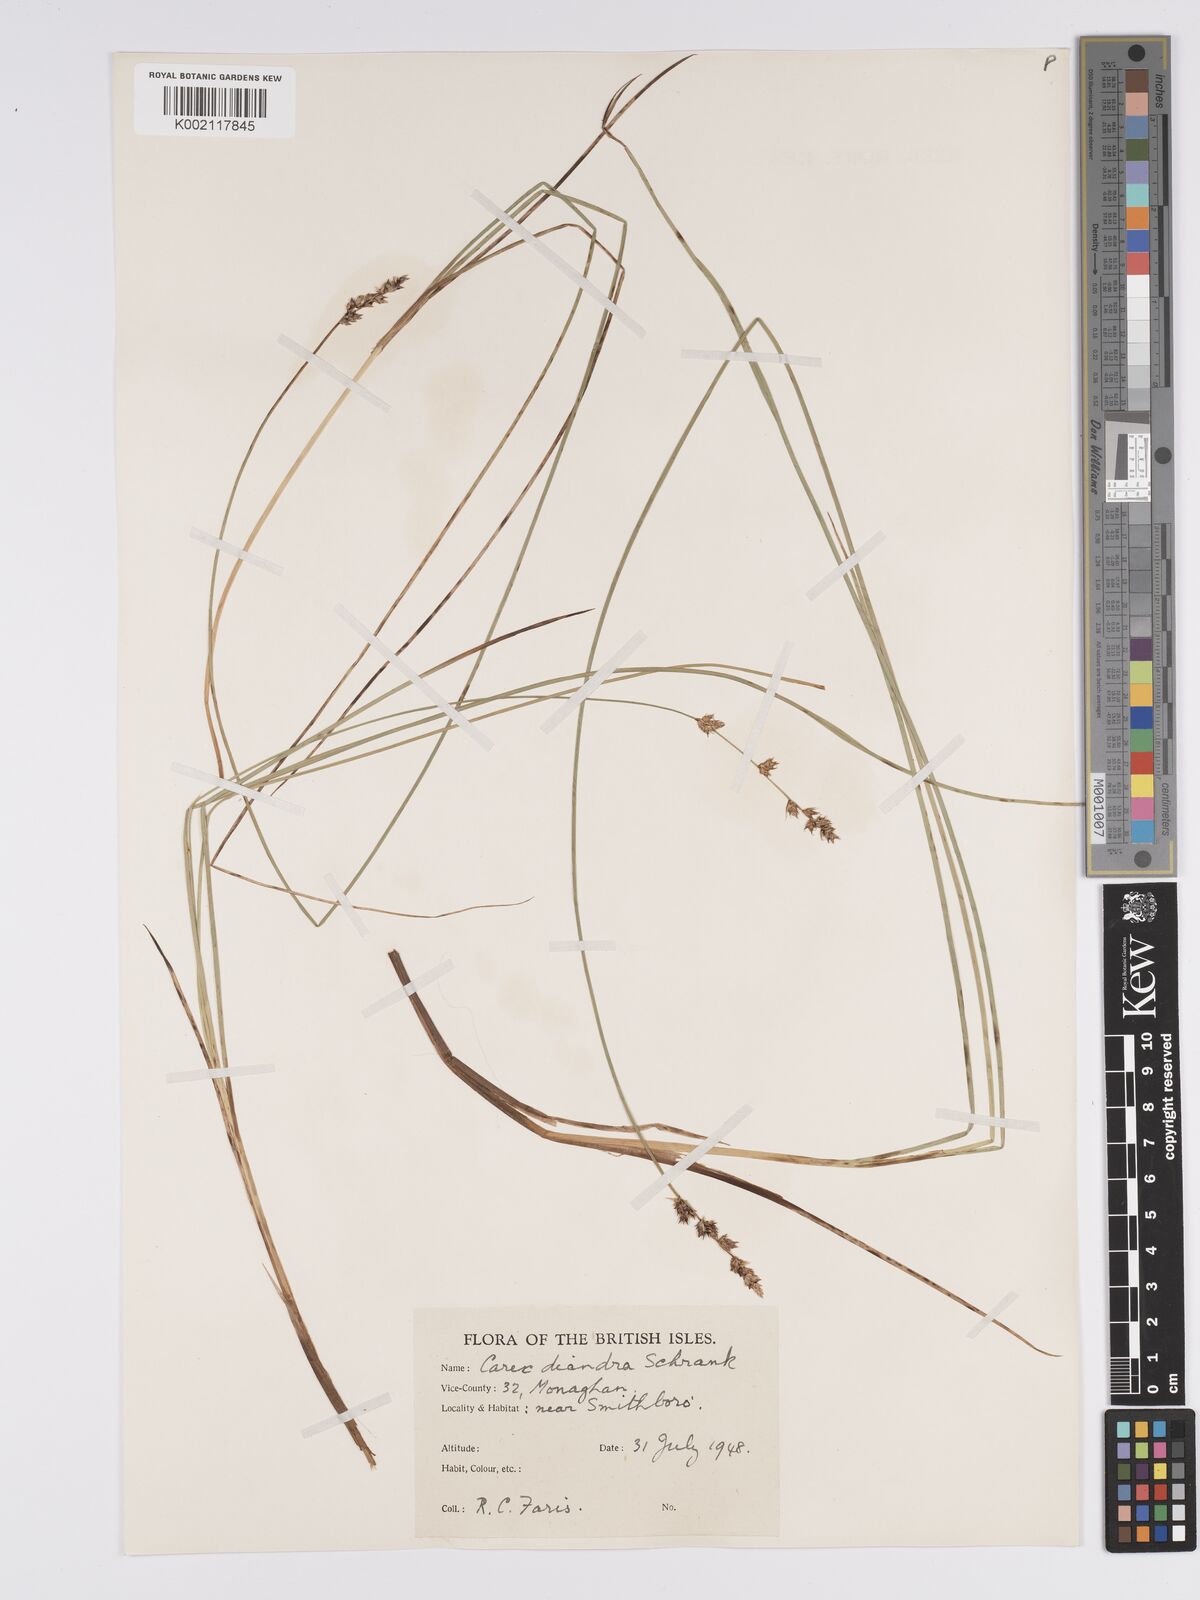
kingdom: Plantae
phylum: Tracheophyta
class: Liliopsida
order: Poales
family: Cyperaceae
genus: Carex
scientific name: Carex diandra
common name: Lesser tussock-sedge
